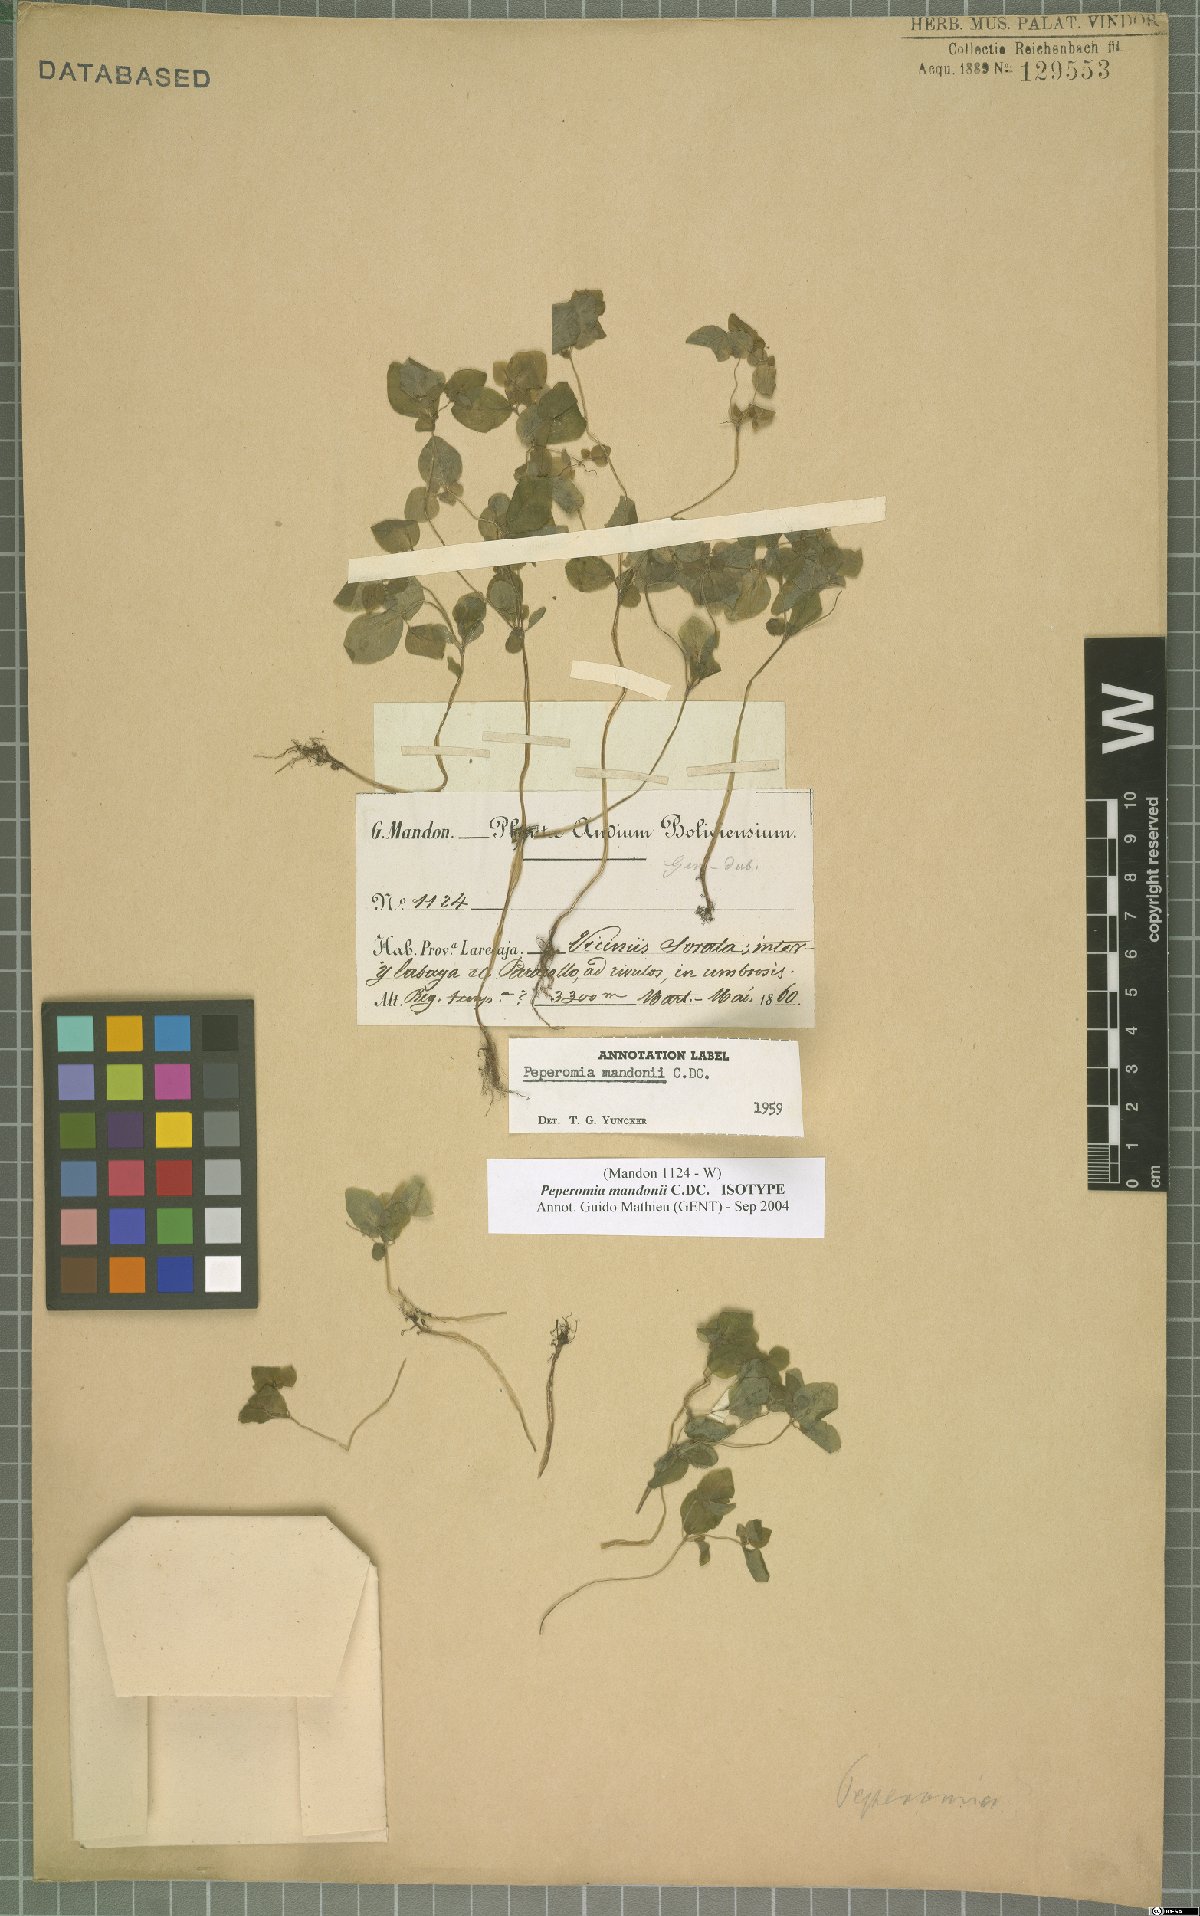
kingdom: Plantae
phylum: Tracheophyta
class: Magnoliopsida
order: Piperales
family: Piperaceae
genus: Peperomia
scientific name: Peperomia mandonii
